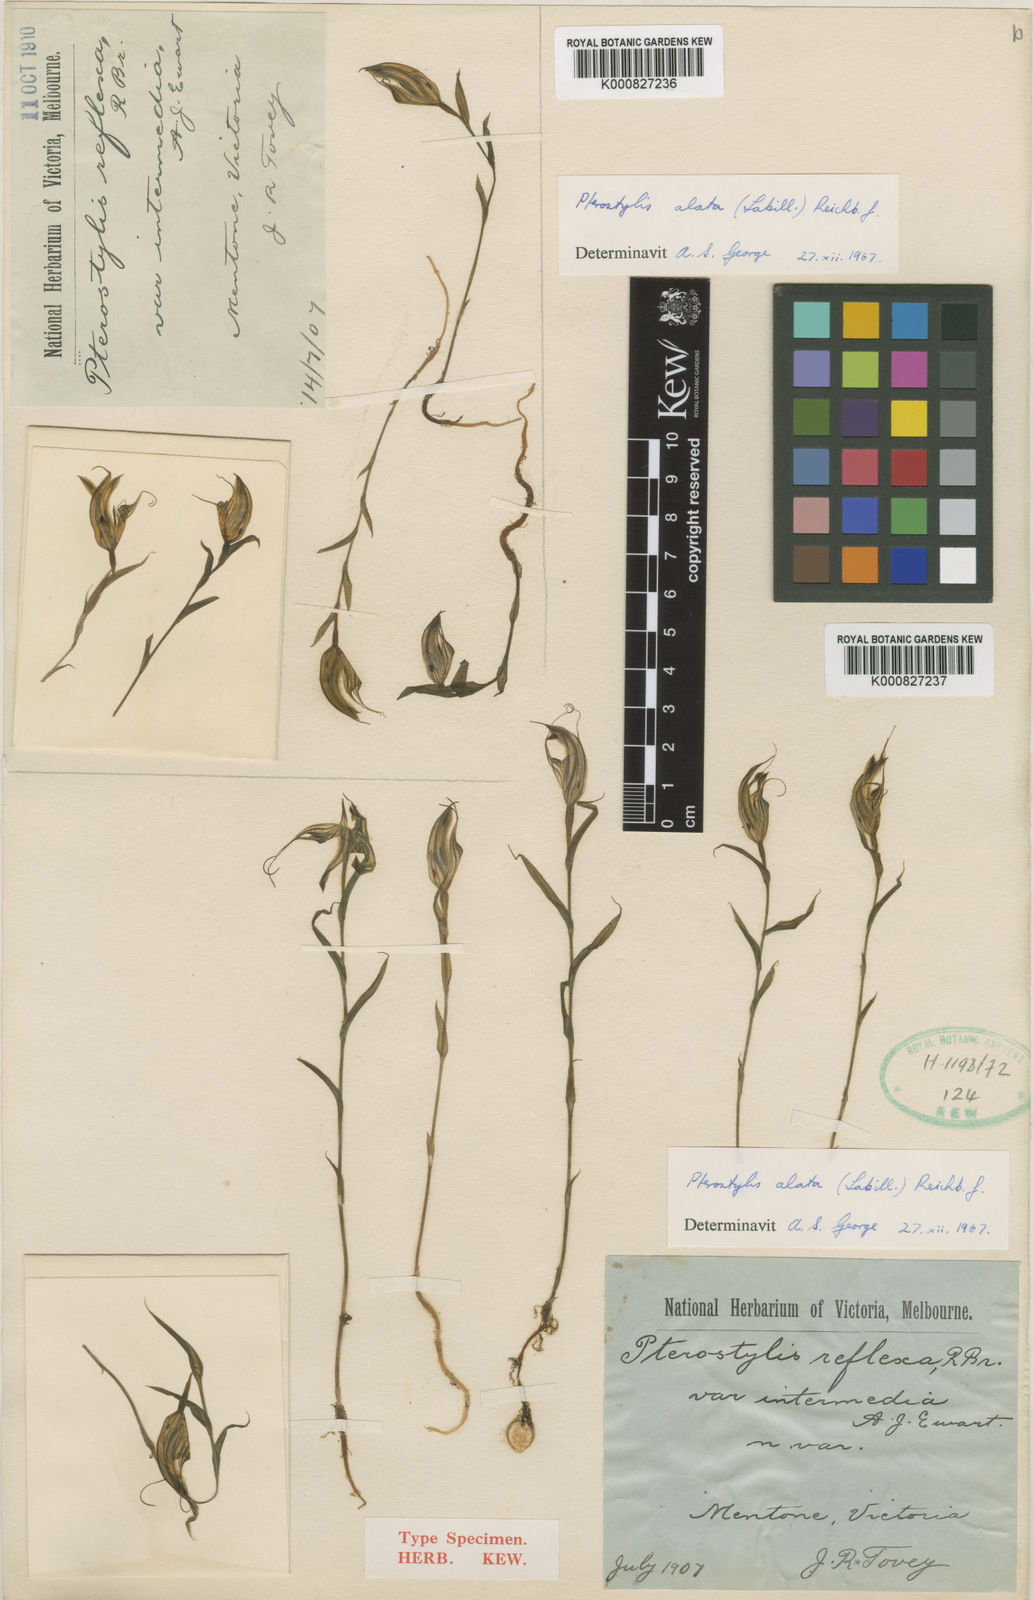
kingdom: Plantae
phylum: Tracheophyta
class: Liliopsida
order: Asparagales
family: Orchidaceae
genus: Pterostylis
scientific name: Pterostylis alata
